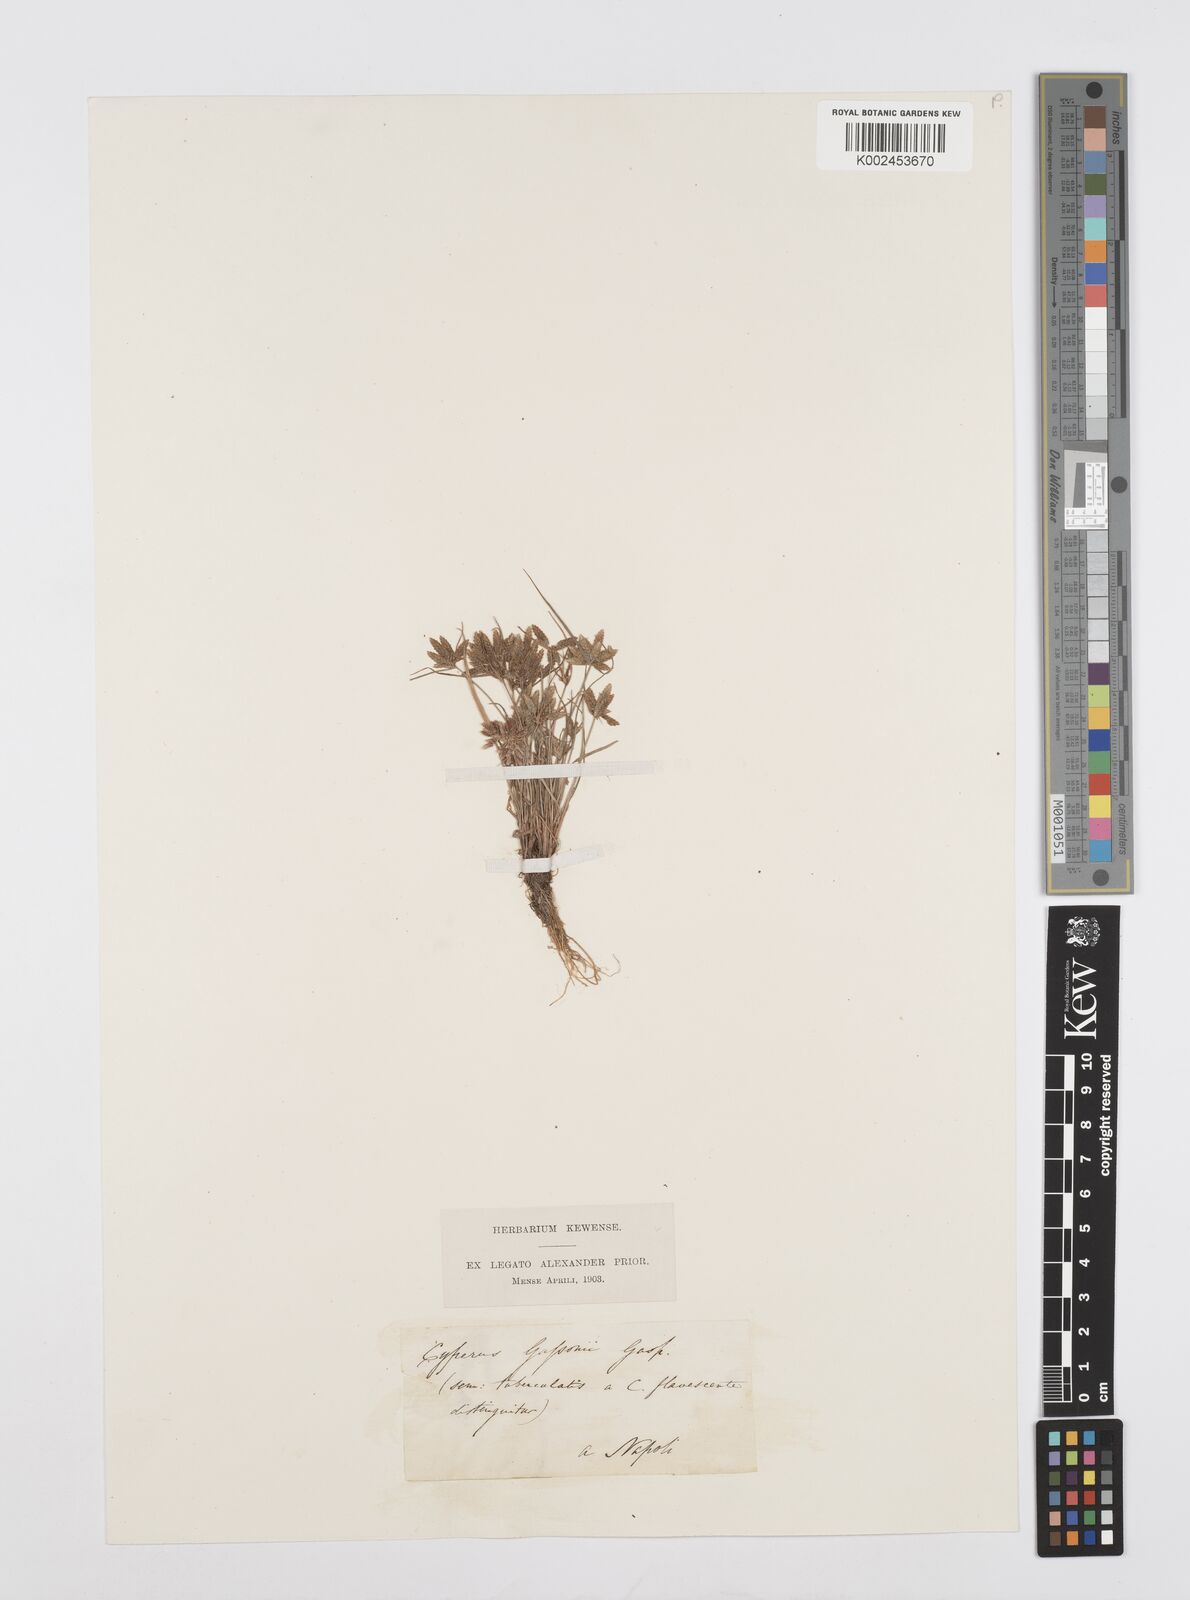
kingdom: Plantae
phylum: Tracheophyta
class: Liliopsida
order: Poales
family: Cyperaceae
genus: Cyperus
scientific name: Cyperus flavescens
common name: Yellow galingale
